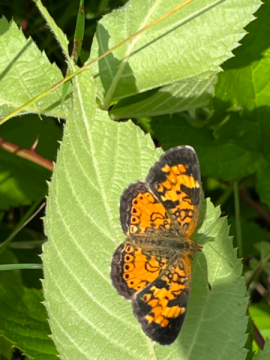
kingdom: Animalia
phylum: Arthropoda
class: Insecta
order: Lepidoptera
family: Nymphalidae
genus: Phyciodes
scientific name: Phyciodes tharos
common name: Northern Crescent
